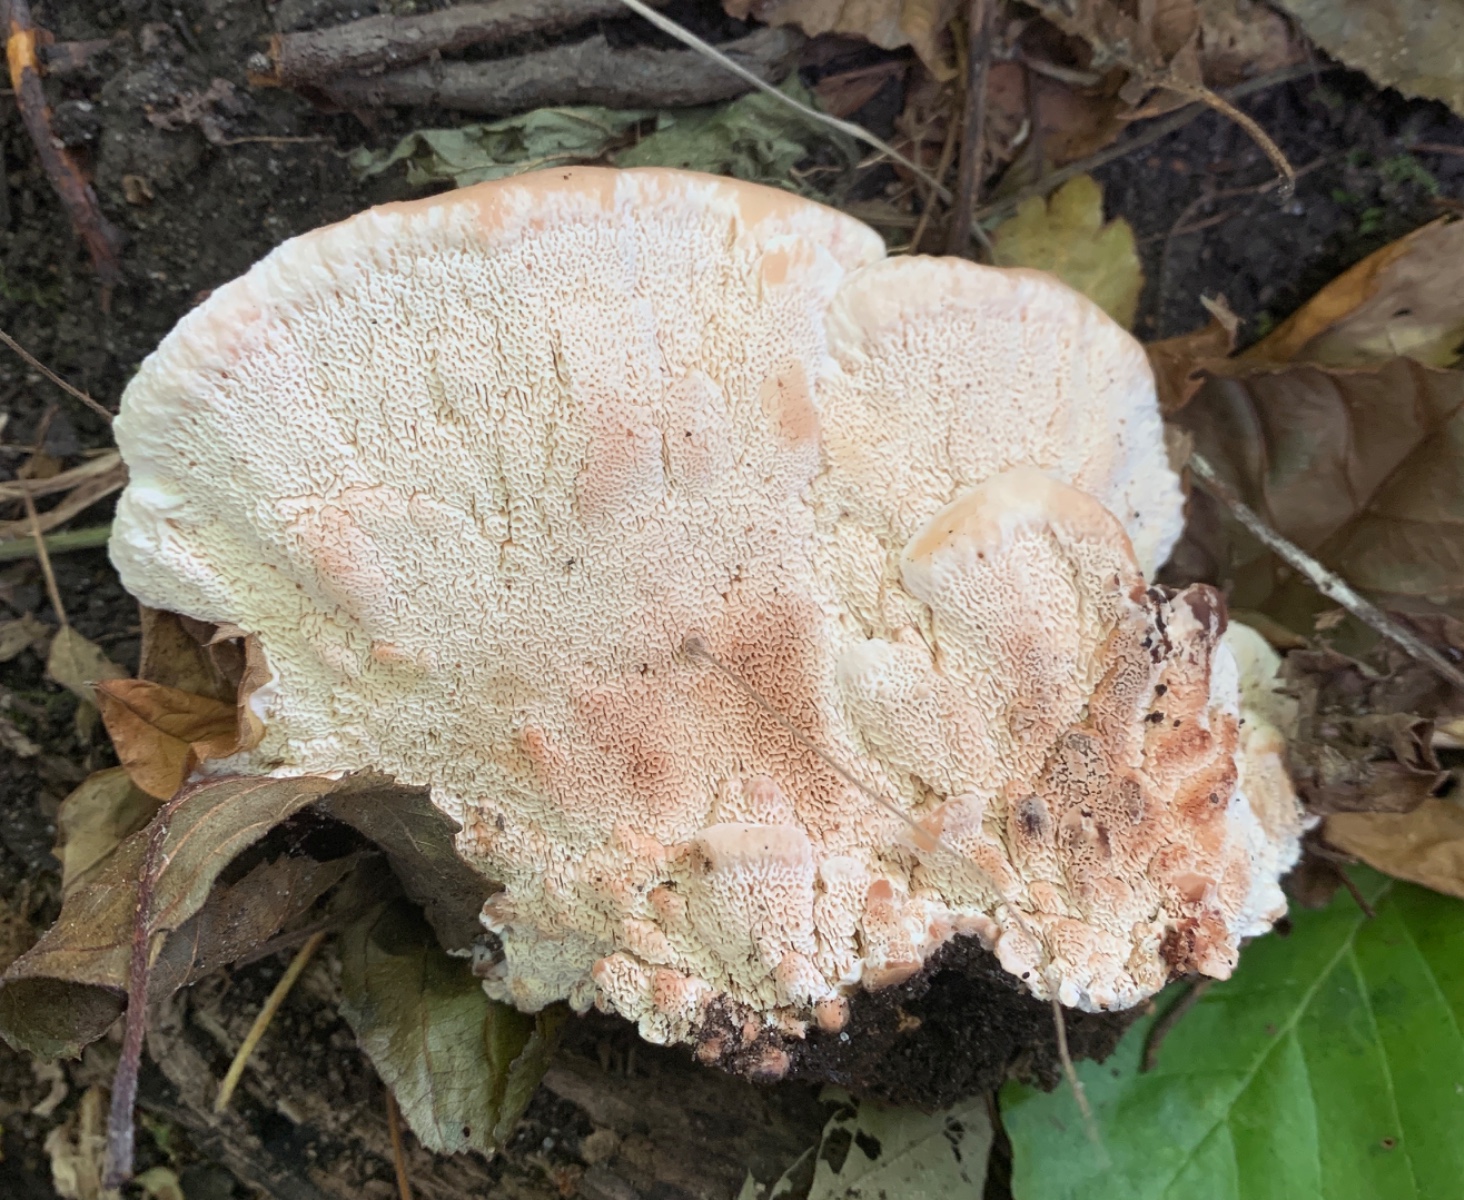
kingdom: Fungi
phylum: Basidiomycota
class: Agaricomycetes
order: Polyporales
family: Podoscyphaceae
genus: Abortiporus
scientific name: Abortiporus biennis
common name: rødmende pjalteporesvamp
